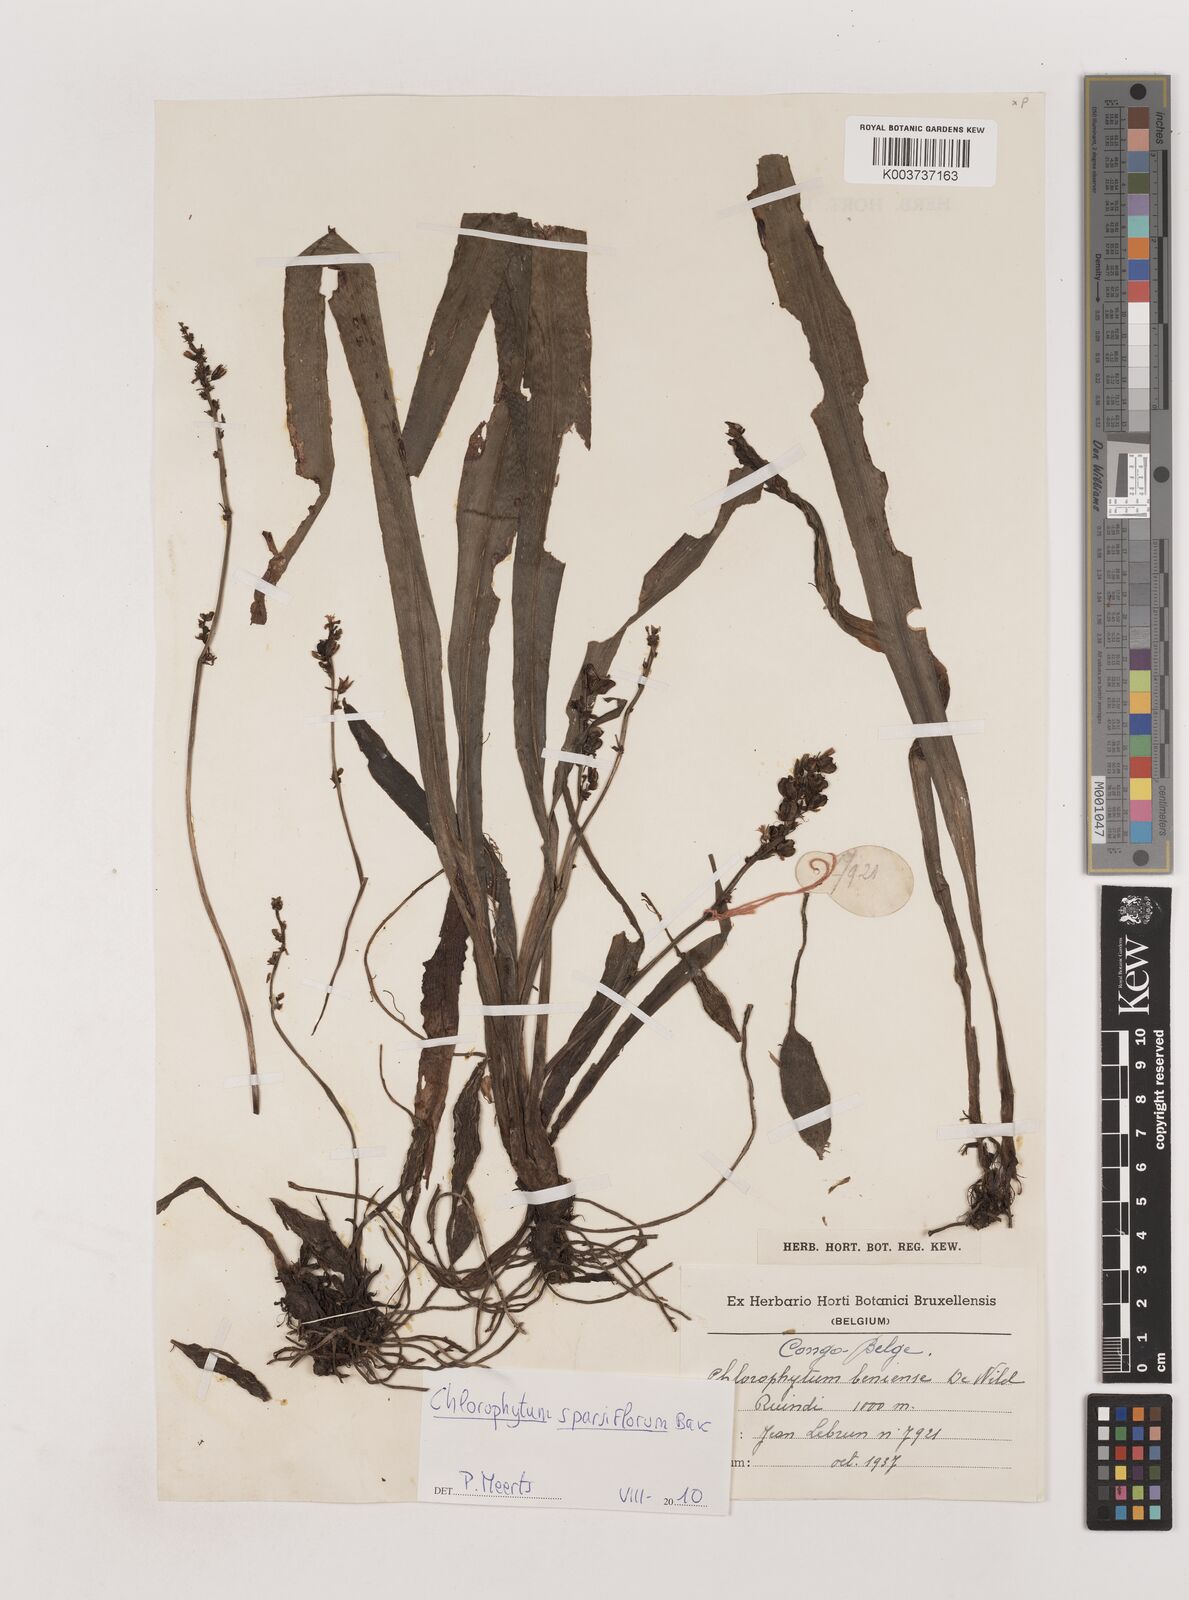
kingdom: Plantae
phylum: Tracheophyta
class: Liliopsida
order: Asparagales
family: Asparagaceae
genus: Chlorophytum
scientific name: Chlorophytum sparsiflorum
